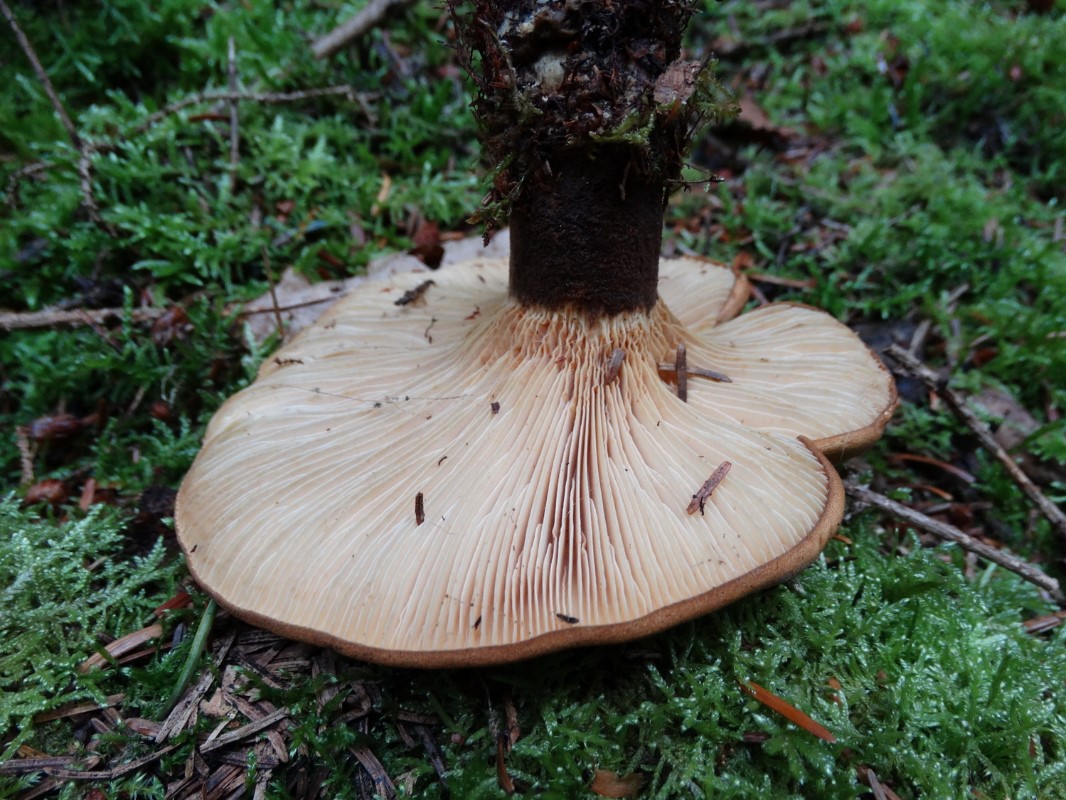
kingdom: Fungi
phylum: Basidiomycota
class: Agaricomycetes
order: Boletales
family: Tapinellaceae
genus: Tapinella
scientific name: Tapinella atrotomentosa
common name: sortfiltet viftesvamp
